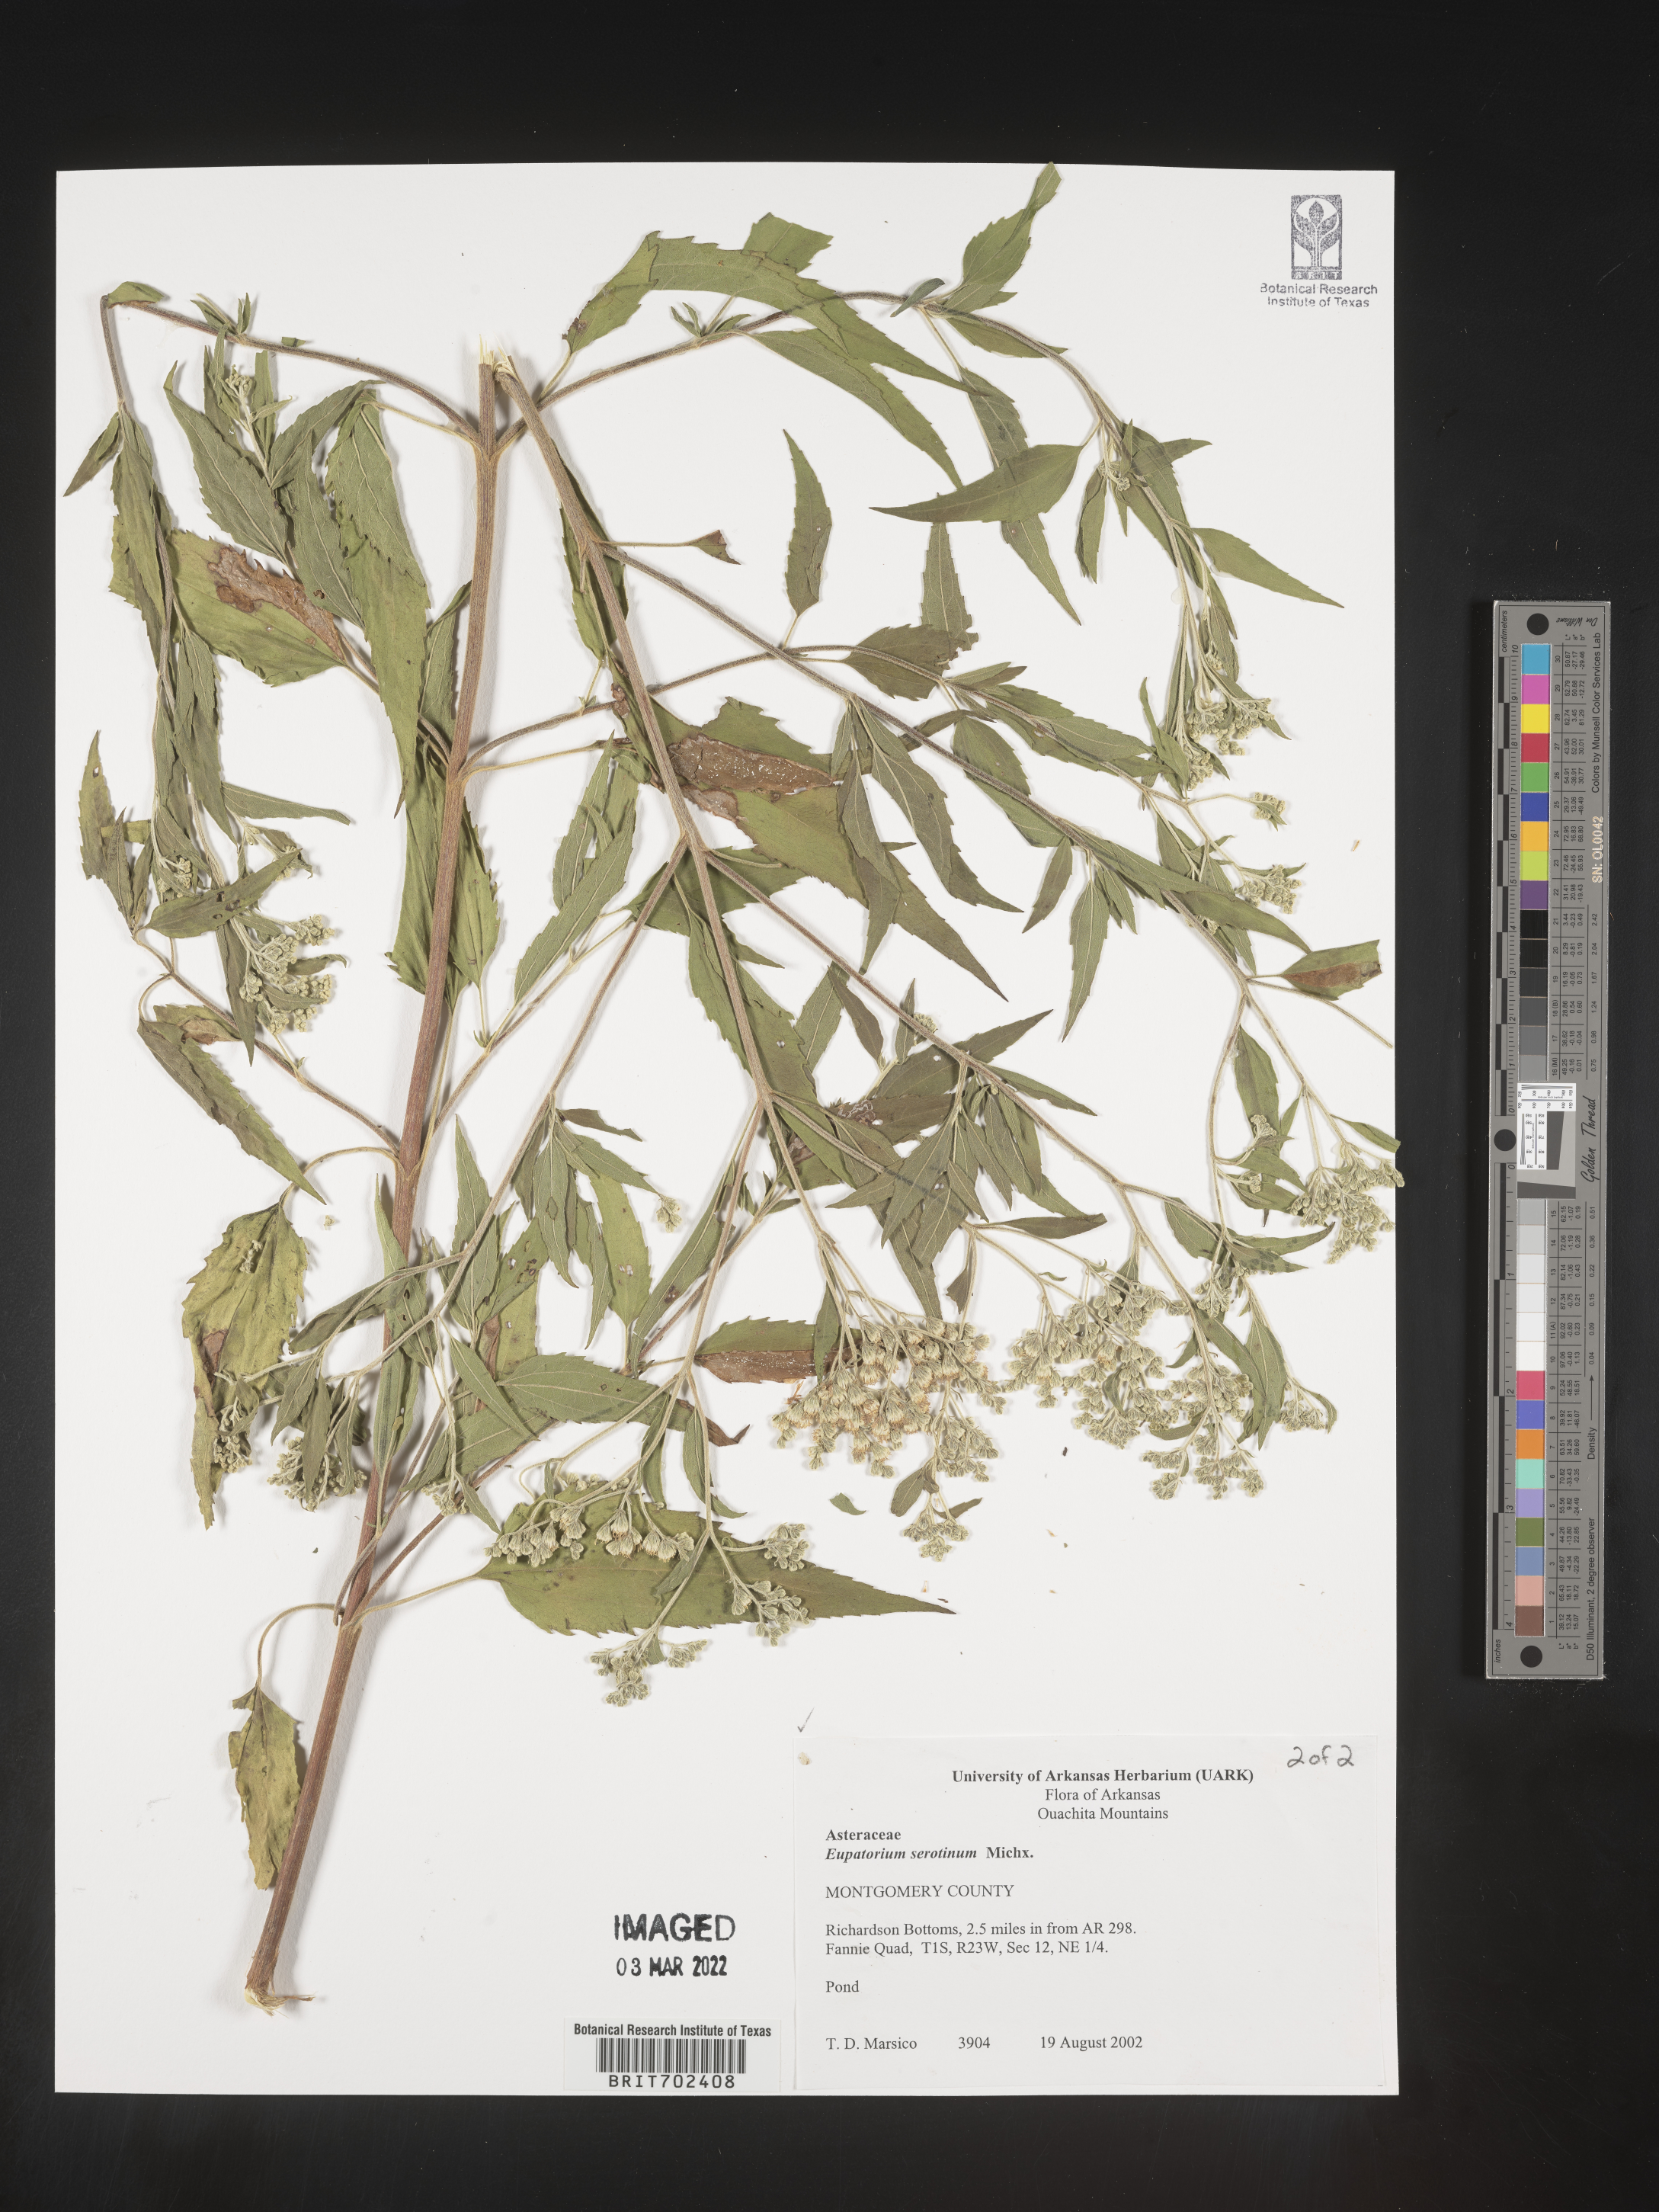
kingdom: Plantae
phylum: Tracheophyta
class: Magnoliopsida
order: Asterales
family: Asteraceae
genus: Eupatorium
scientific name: Eupatorium serotinum
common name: Late boneset
